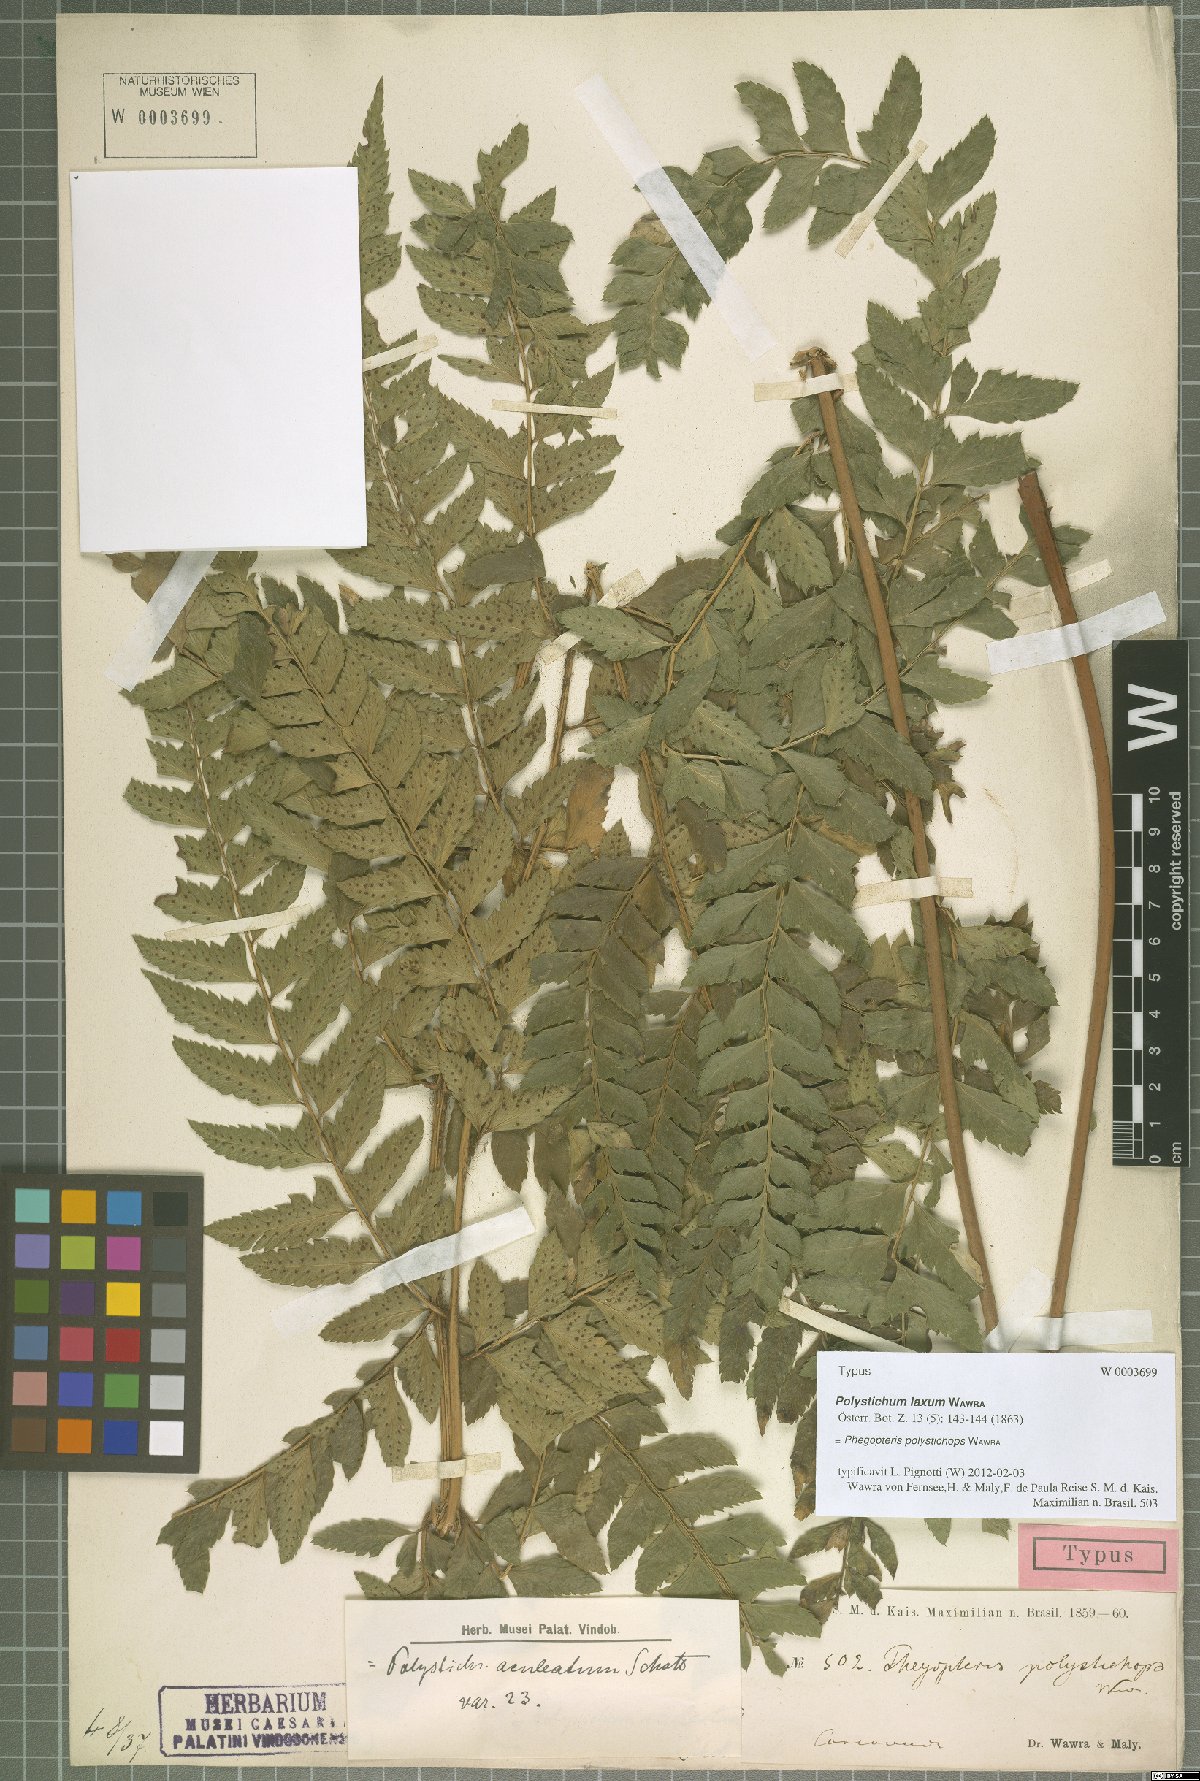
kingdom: Plantae
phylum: Tracheophyta
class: Polypodiopsida
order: Polypodiales
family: Dryopteridaceae
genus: Polystichum
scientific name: Polystichum platyphyllum
